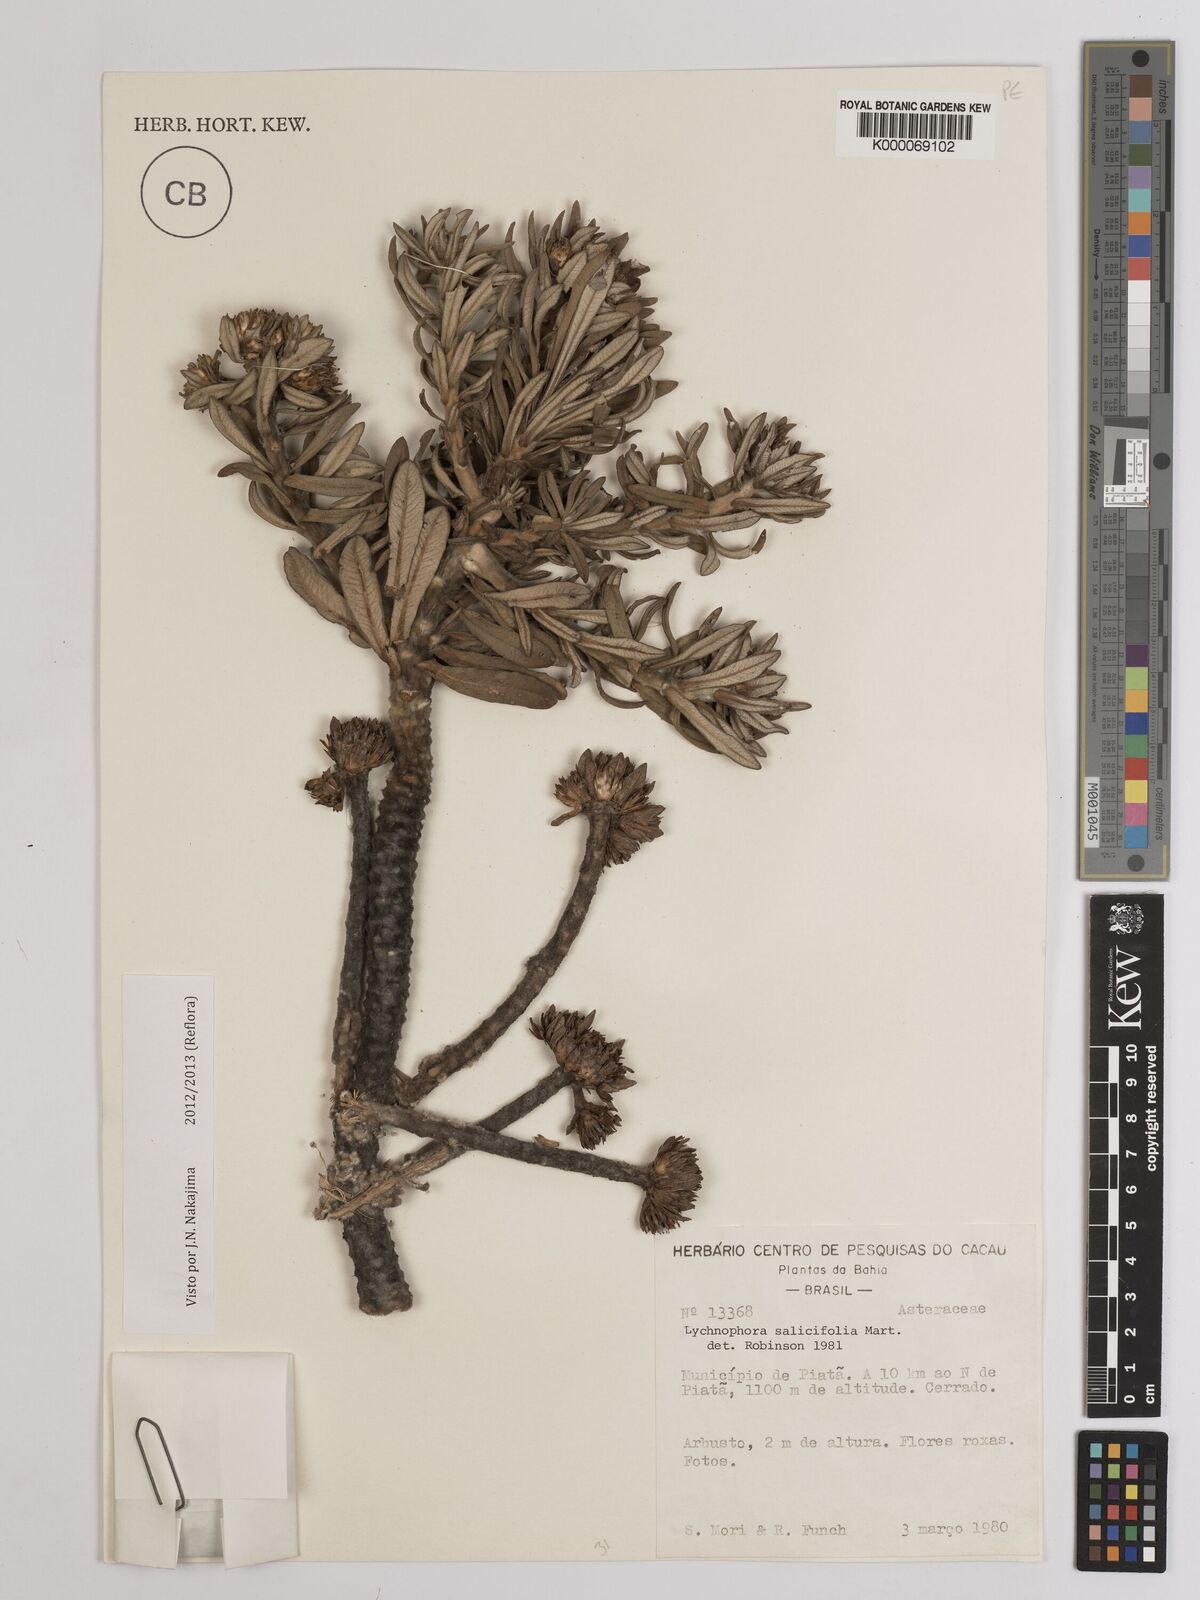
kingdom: Plantae
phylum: Tracheophyta
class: Magnoliopsida
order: Asterales
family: Asteraceae
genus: Lychnophora
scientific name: Lychnophora salicifolia
